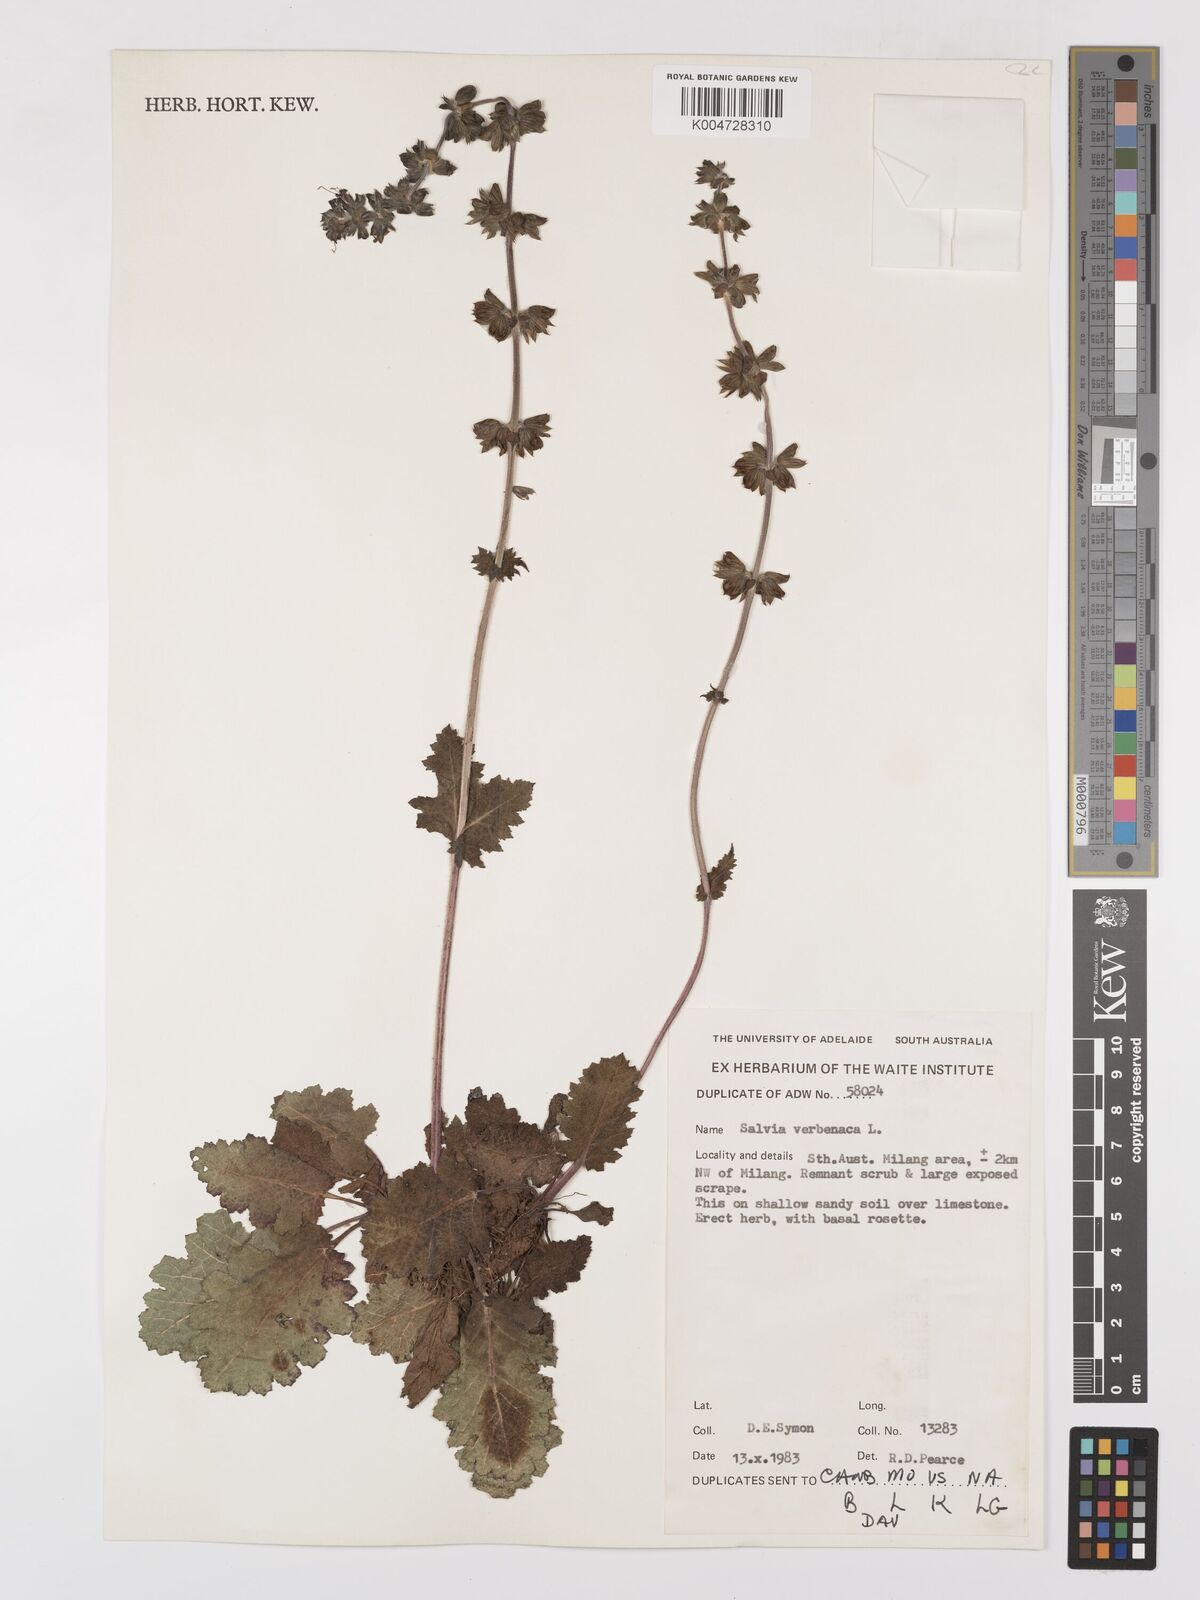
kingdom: Plantae
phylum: Tracheophyta
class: Magnoliopsida
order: Lamiales
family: Lamiaceae
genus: Salvia
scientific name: Salvia verbenaca
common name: Wild clary
